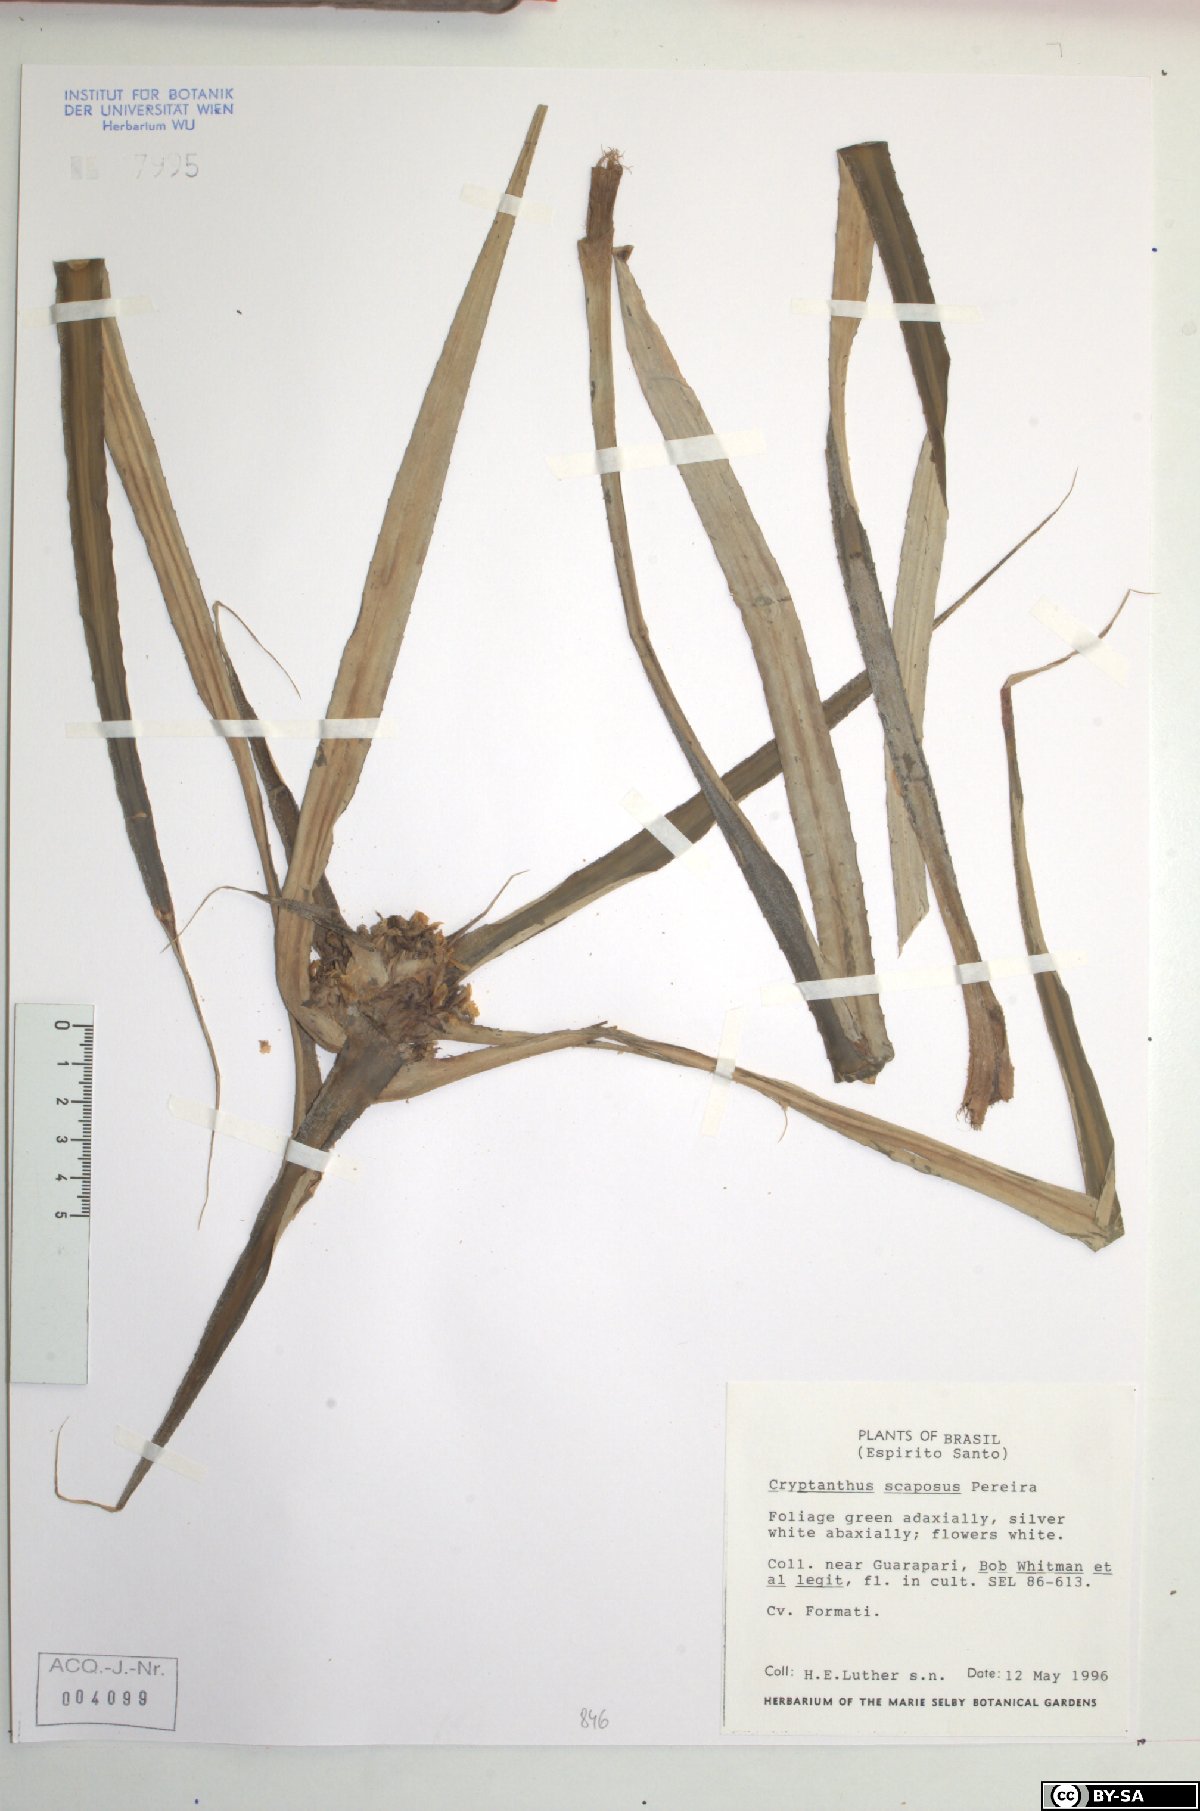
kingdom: Plantae
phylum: Tracheophyta
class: Liliopsida
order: Poales
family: Bromeliaceae
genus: Rokautskyia
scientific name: Rokautskyia scaposa
